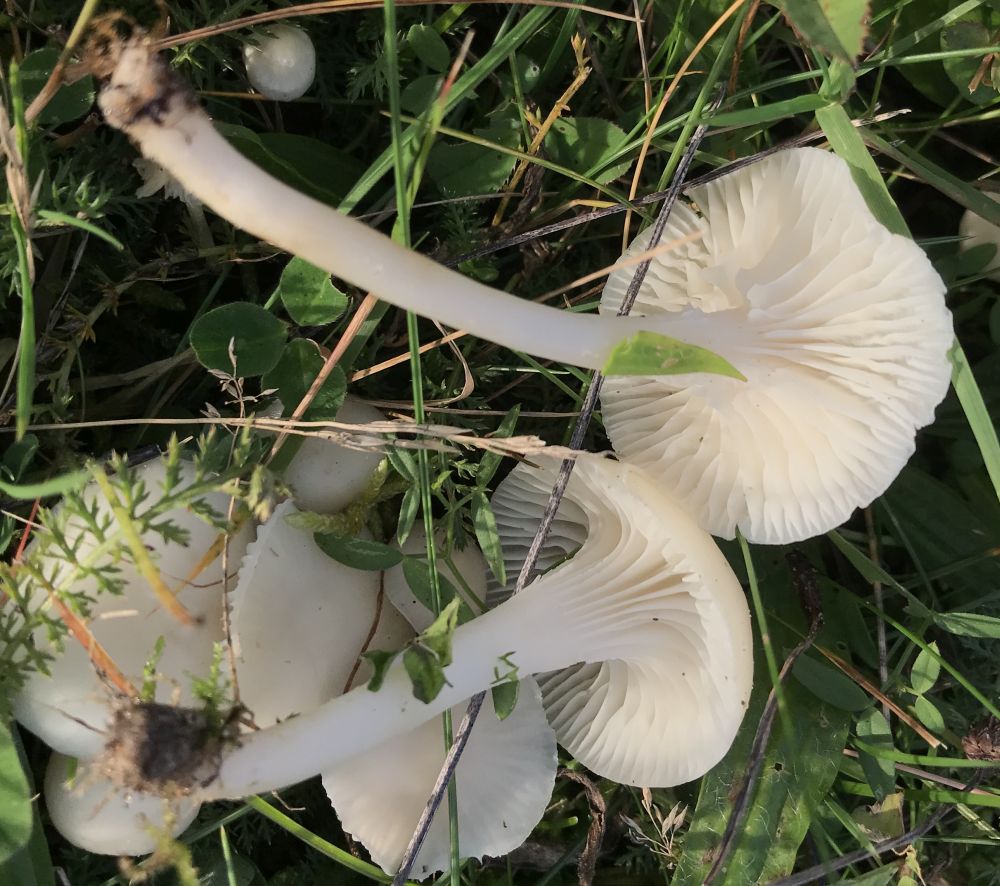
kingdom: Fungi
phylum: Basidiomycota
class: Agaricomycetes
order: Agaricales
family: Hygrophoraceae
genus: Cuphophyllus
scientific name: Cuphophyllus virgineus
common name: snehvid vokshat
